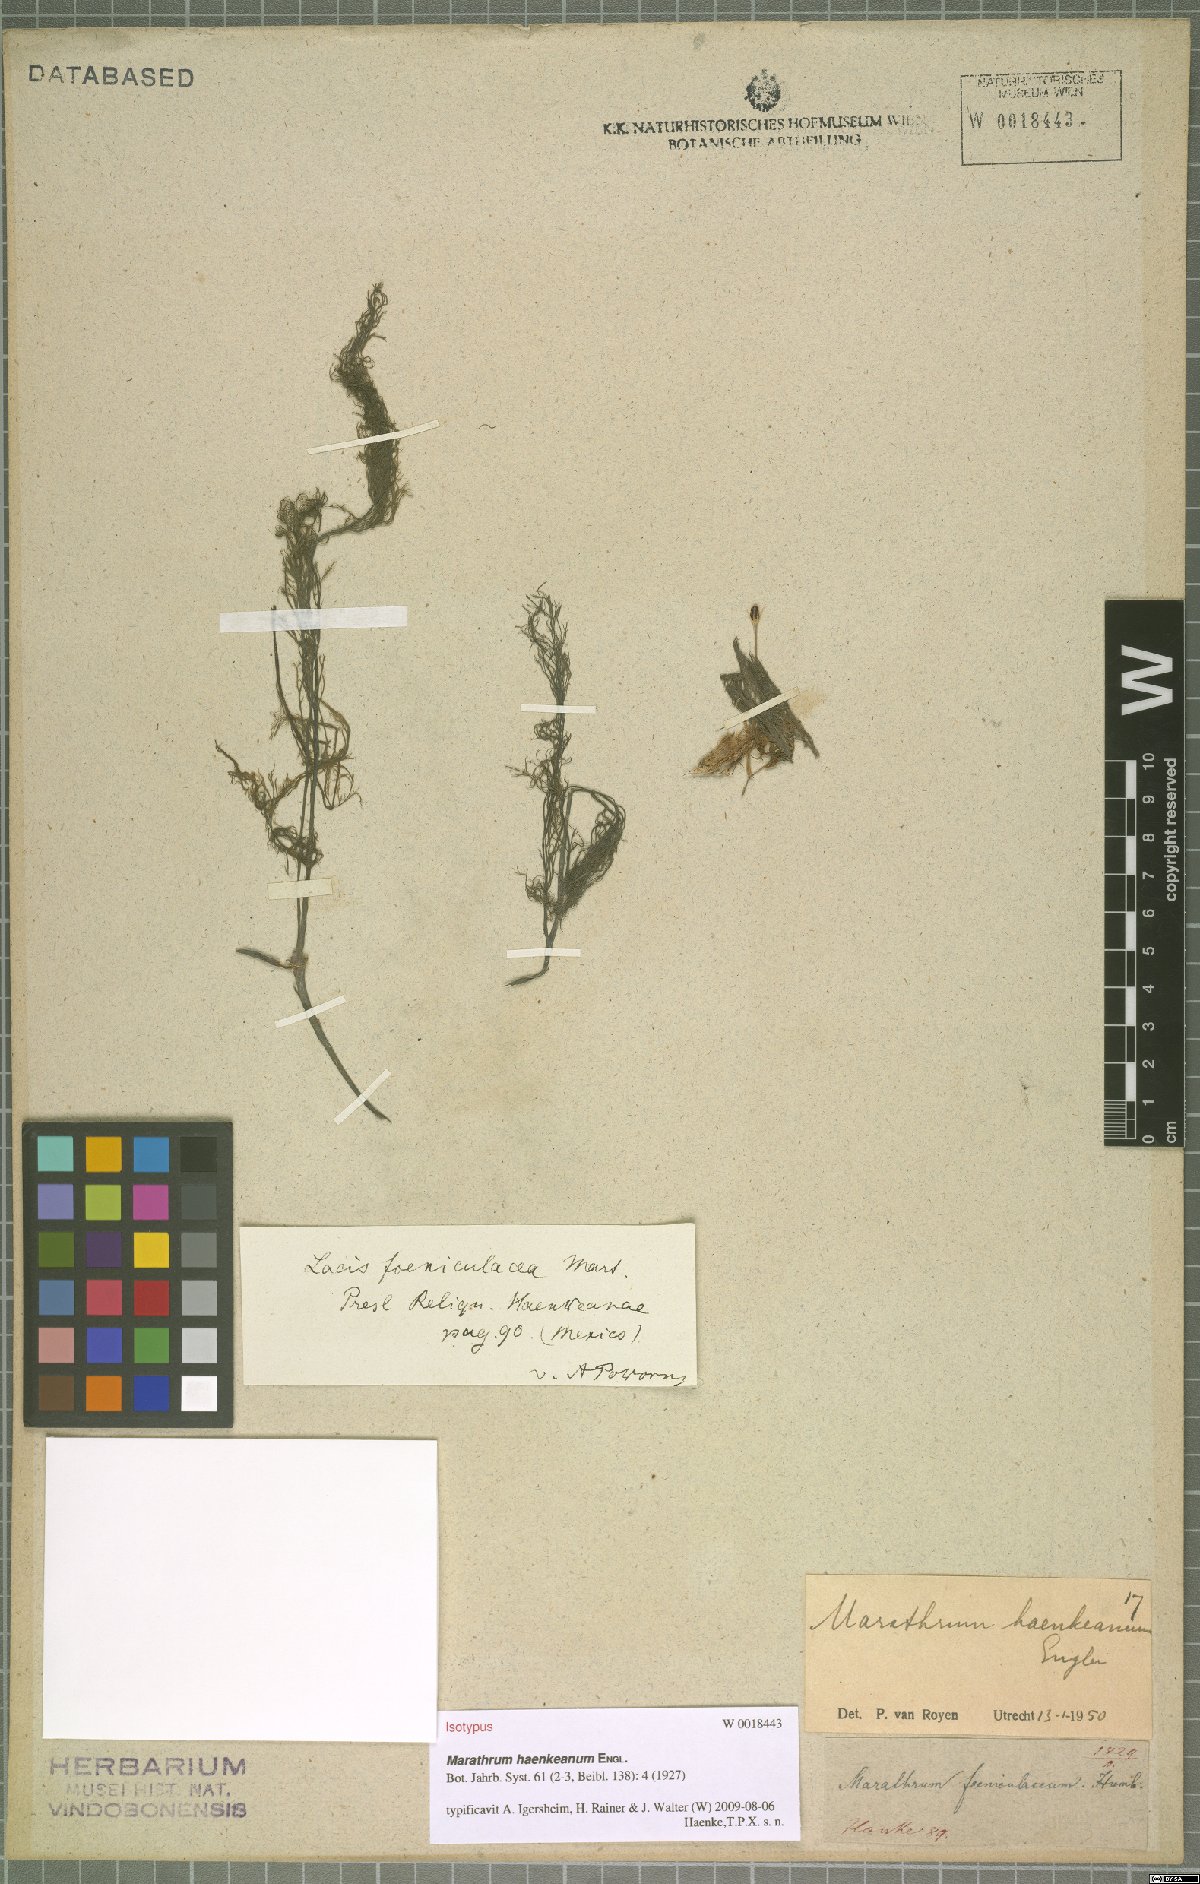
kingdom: Plantae
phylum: Tracheophyta
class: Magnoliopsida
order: Malpighiales
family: Podostemaceae
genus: Marathrum
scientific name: Marathrum foeniculaceum
